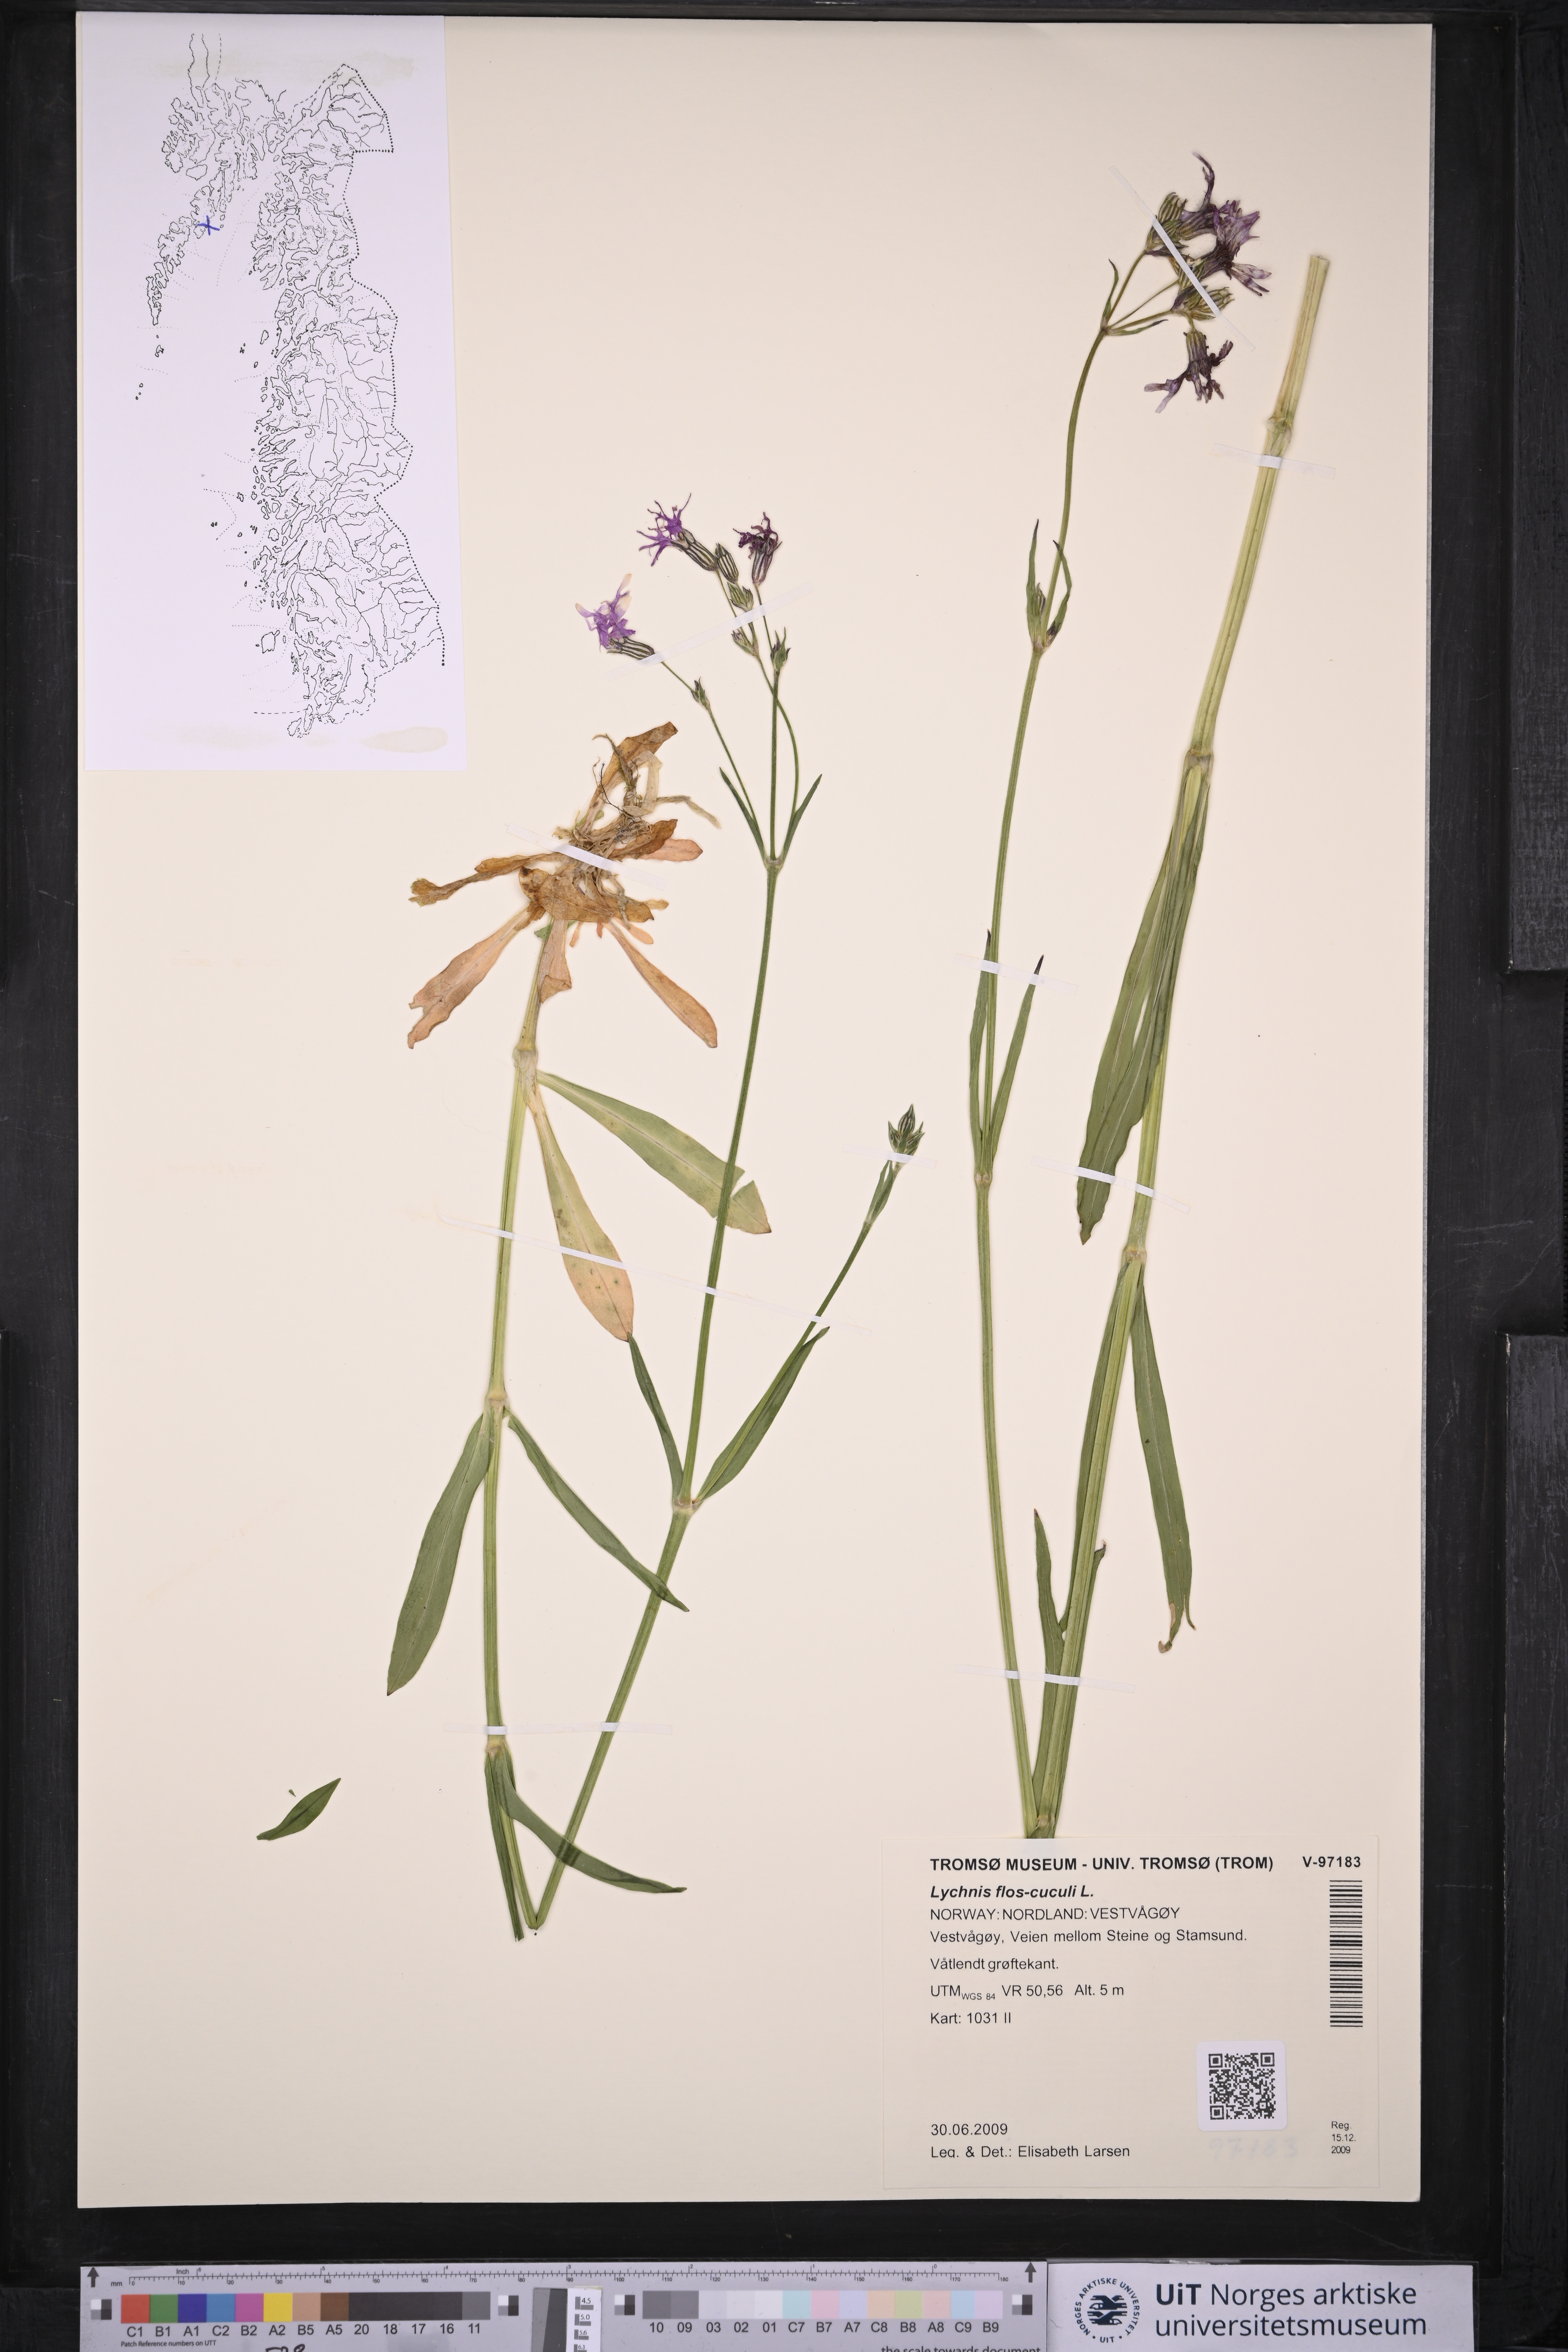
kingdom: Plantae
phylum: Tracheophyta
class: Magnoliopsida
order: Caryophyllales
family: Caryophyllaceae
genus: Silene
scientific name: Silene flos-cuculi
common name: Ragged-robin
